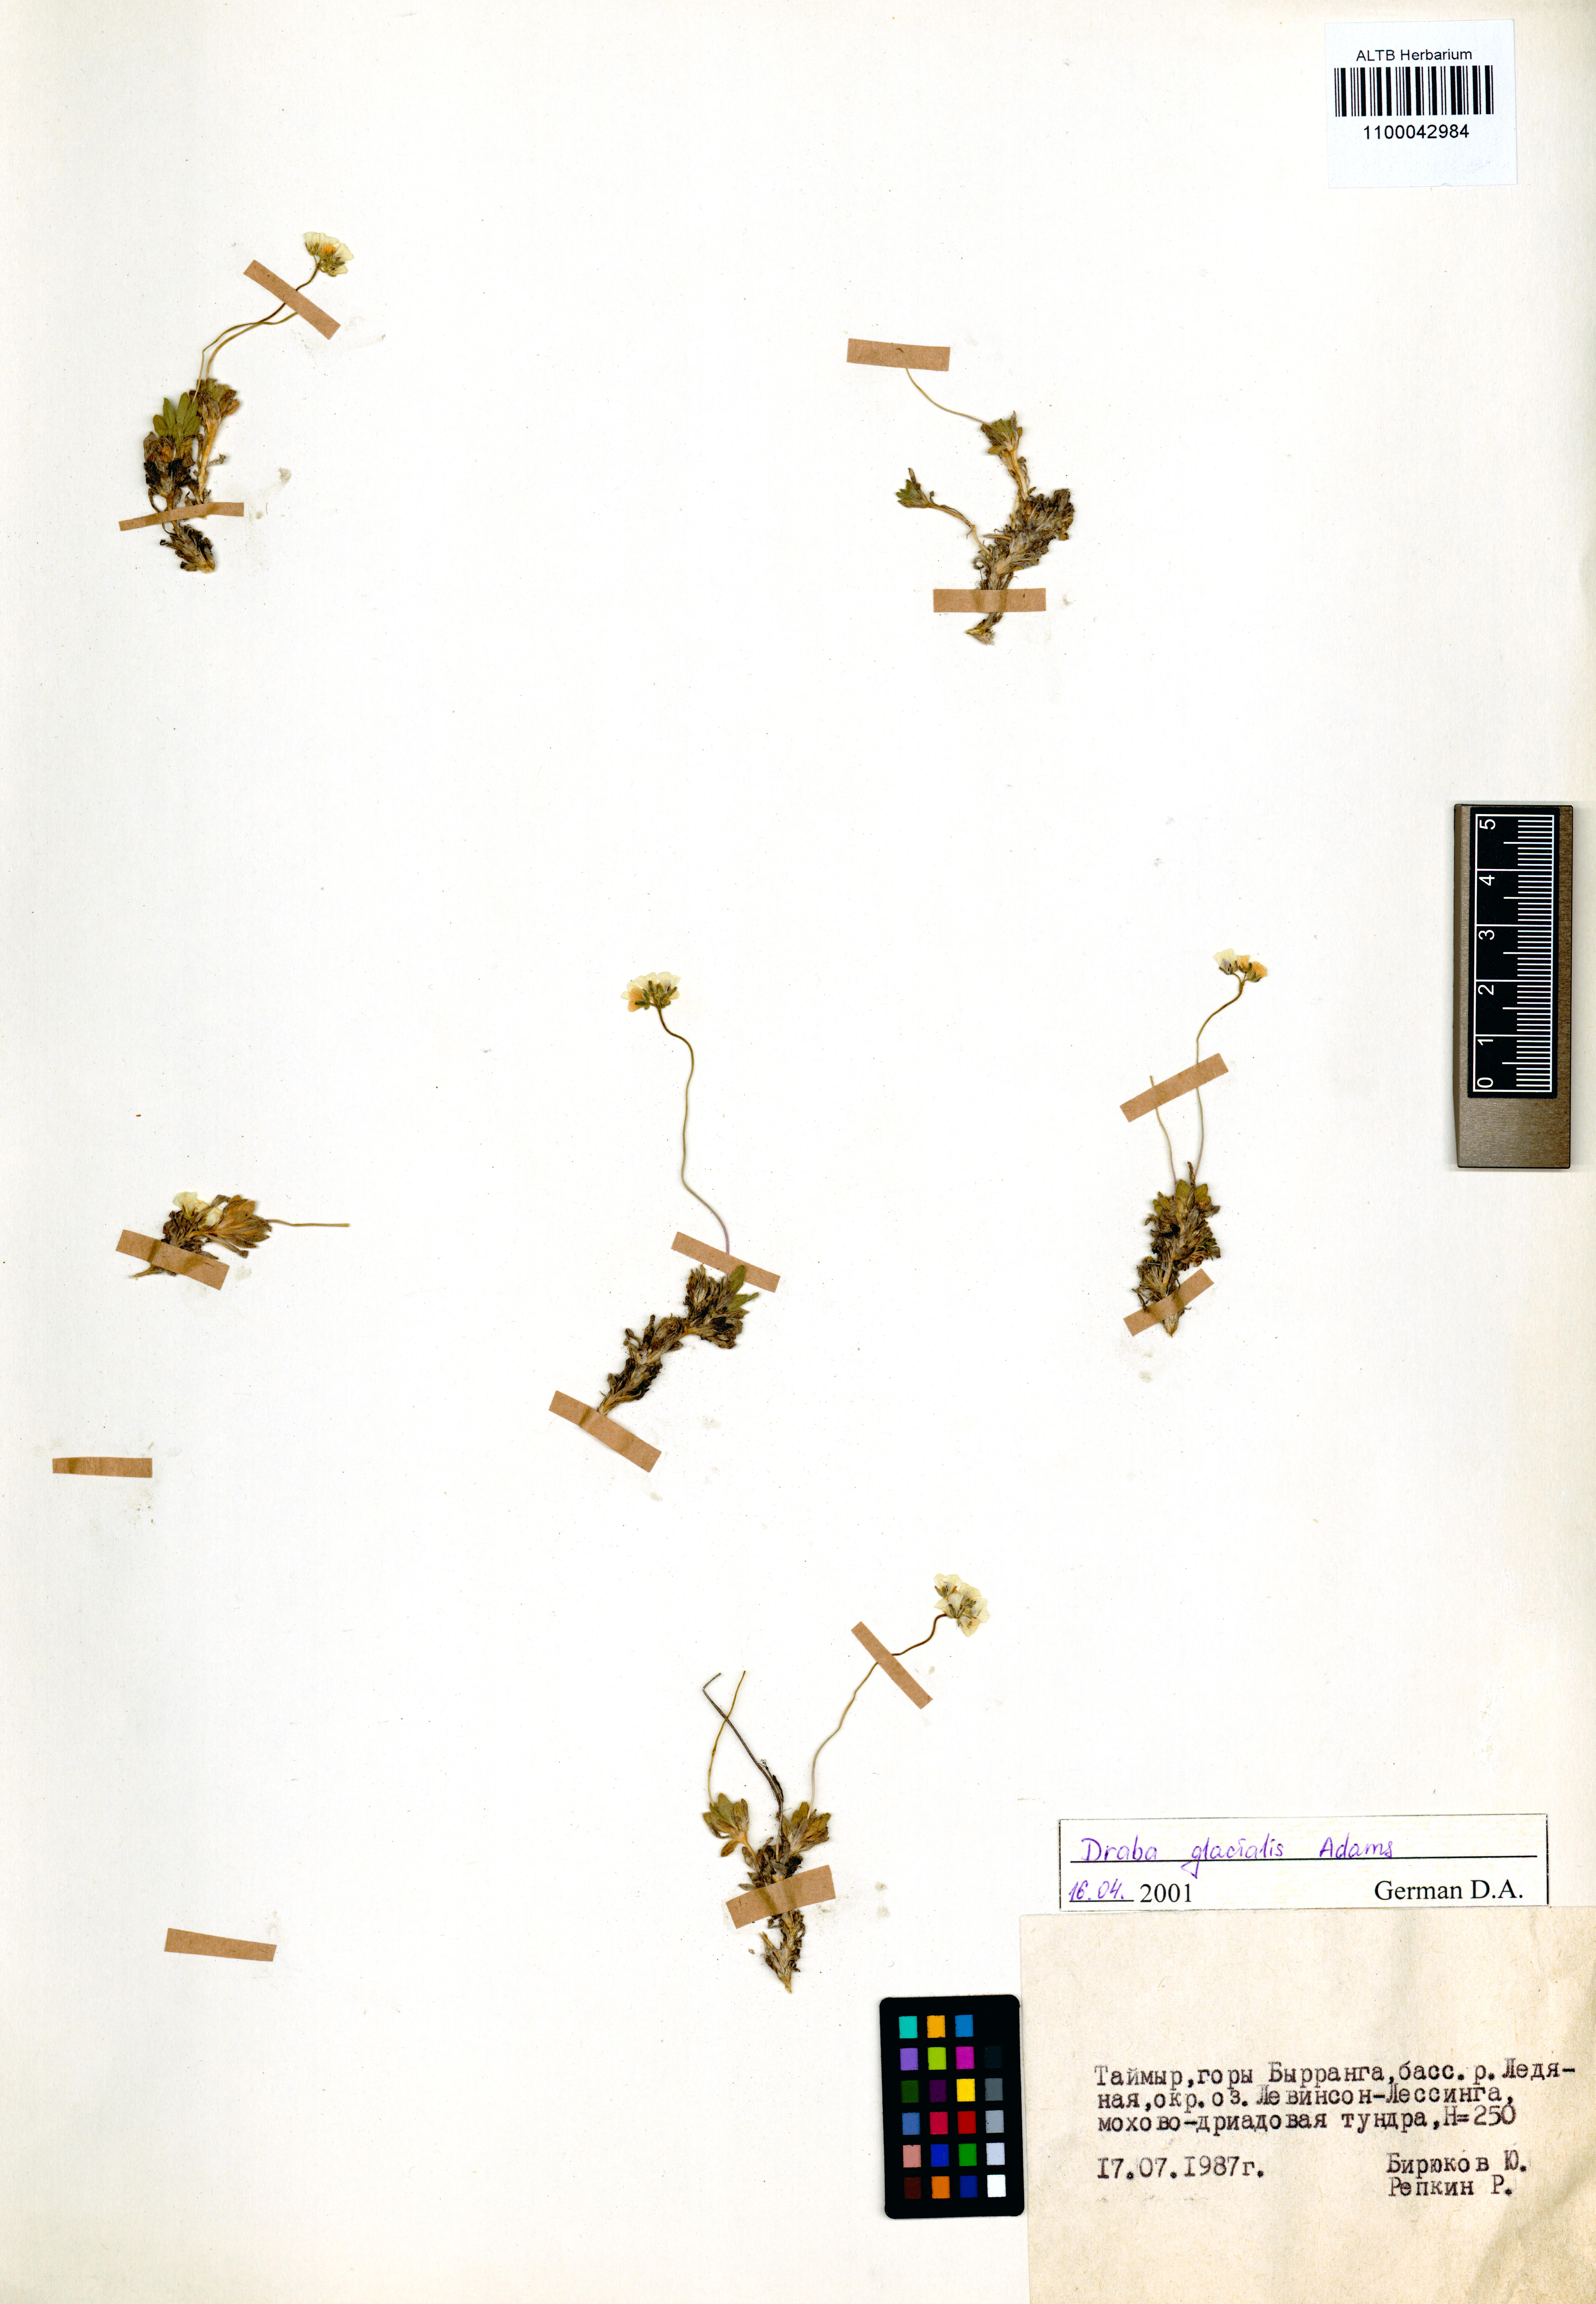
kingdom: Plantae
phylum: Tracheophyta
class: Magnoliopsida
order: Brassicales
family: Brassicaceae
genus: Draba
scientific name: Draba glacialis
